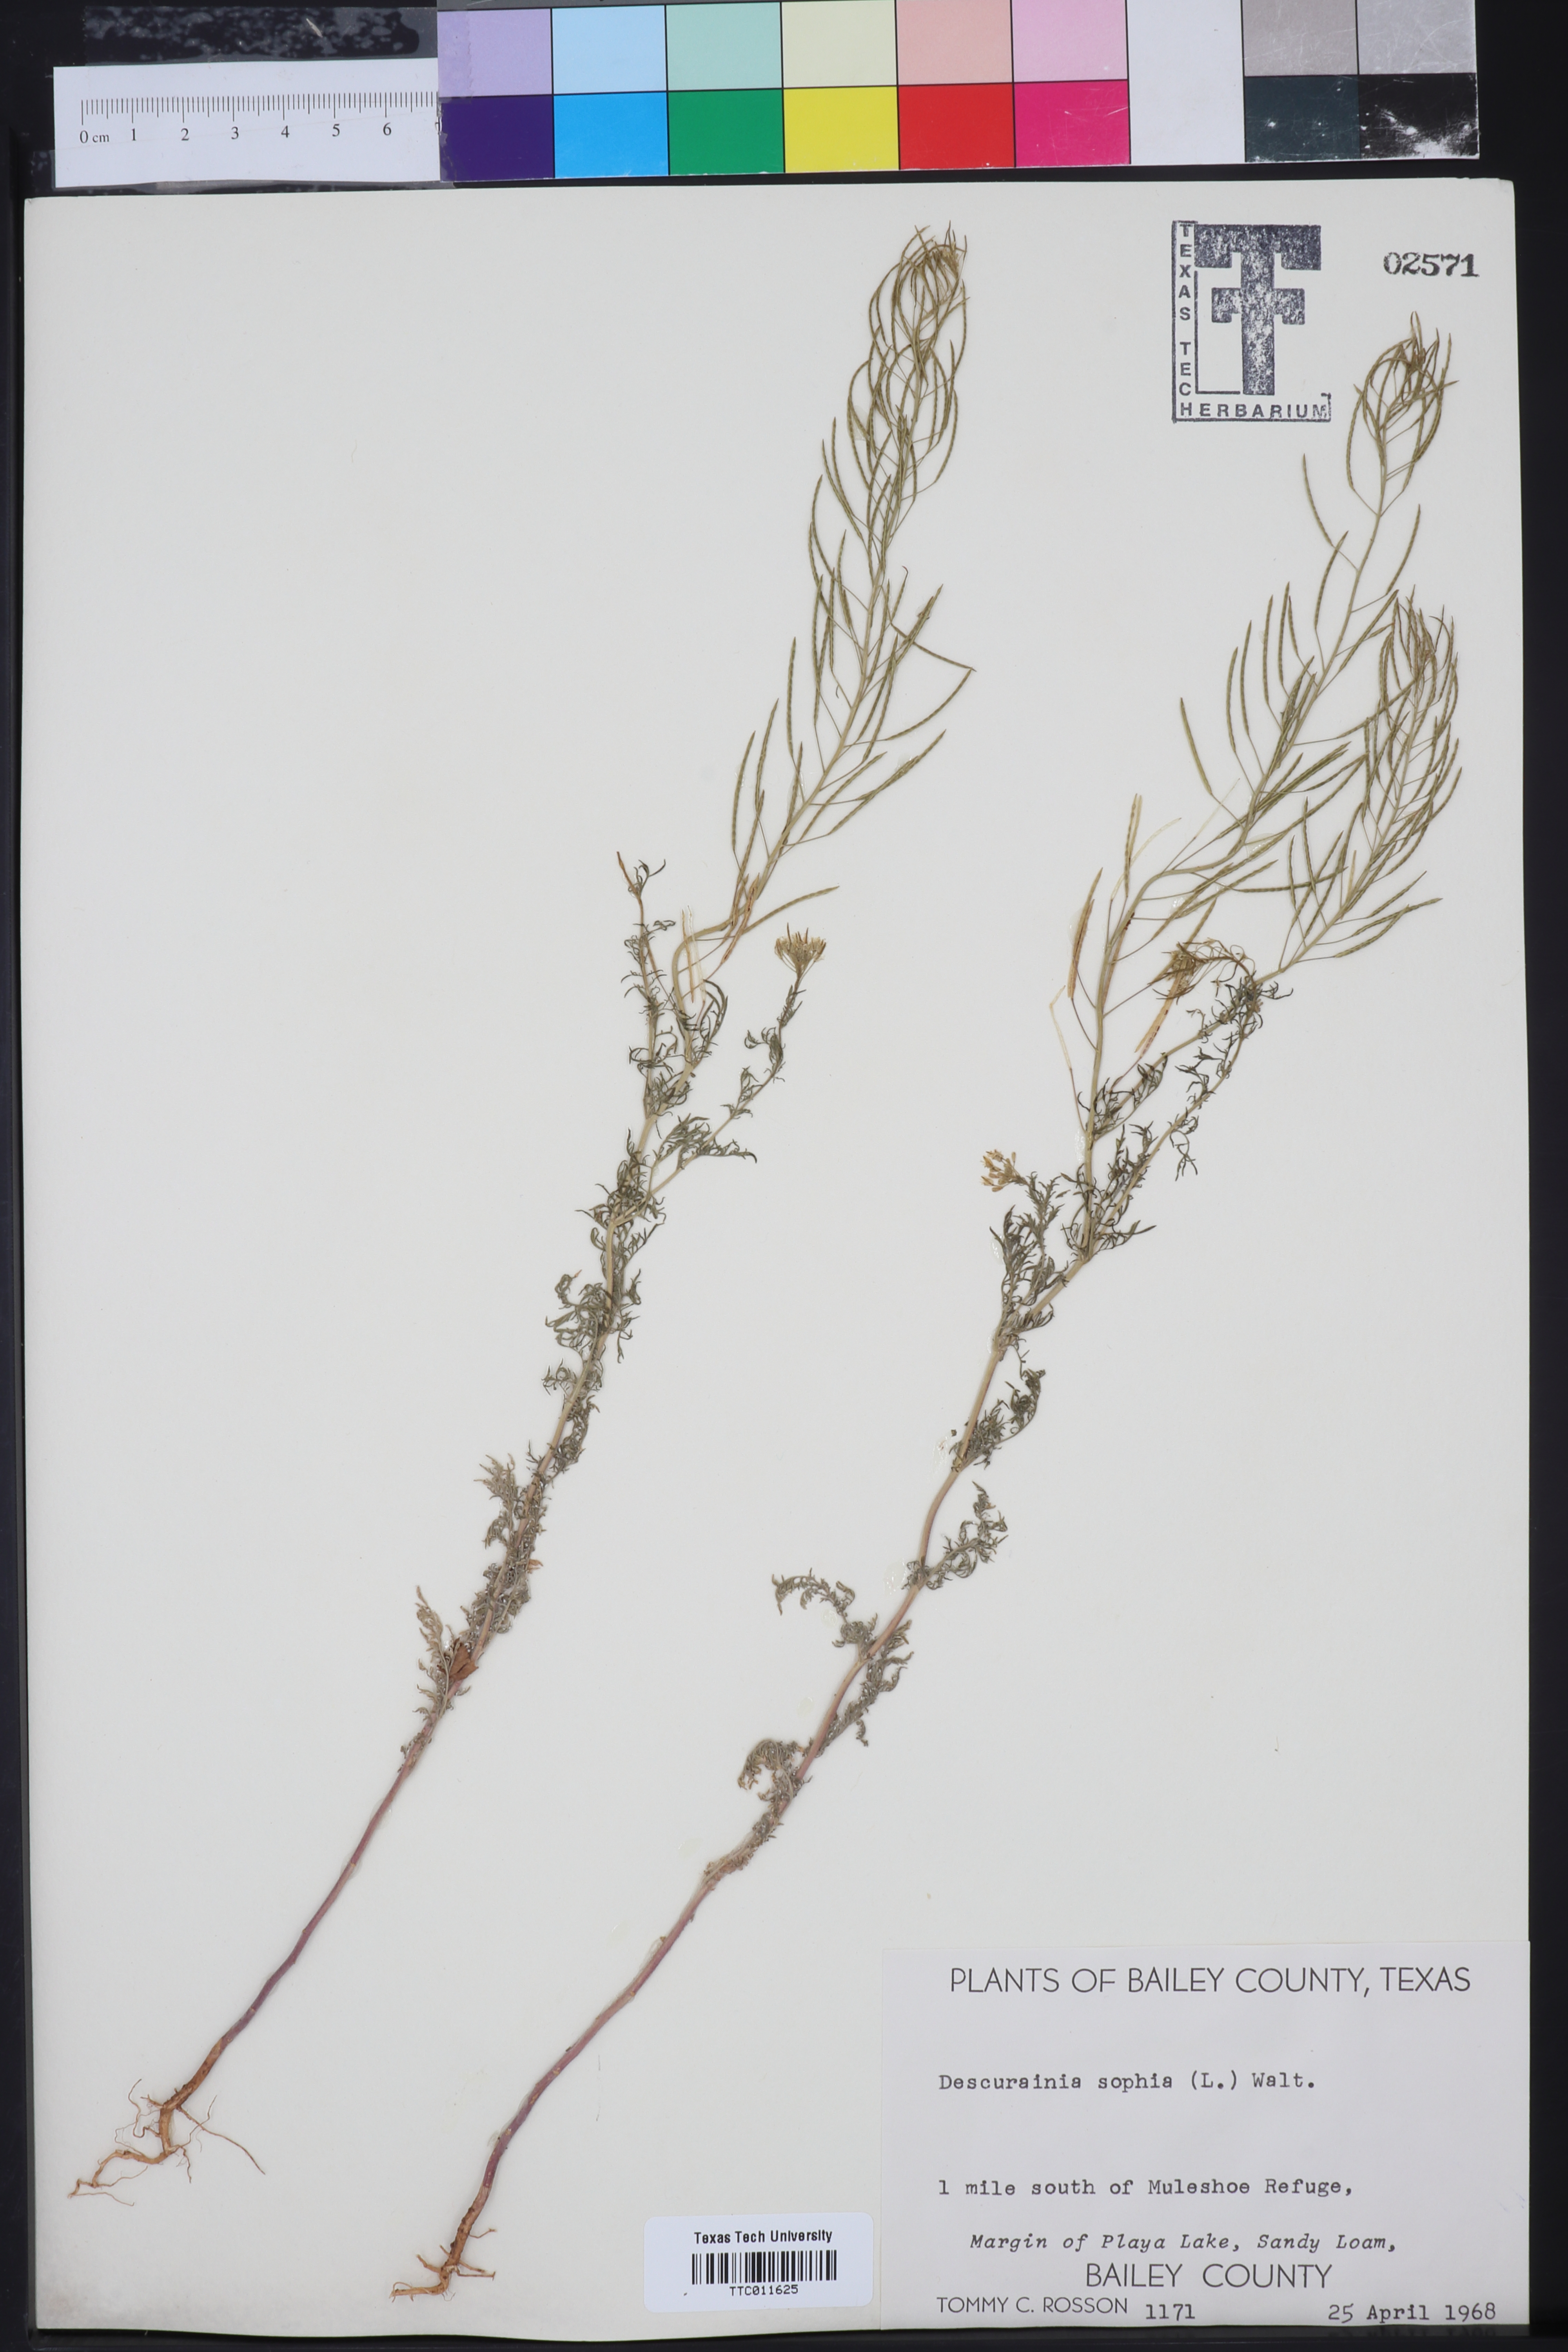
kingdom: Plantae
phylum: Tracheophyta
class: Magnoliopsida
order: Brassicales
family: Brassicaceae
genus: Descurainia
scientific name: Descurainia sophia
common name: Flixweed
